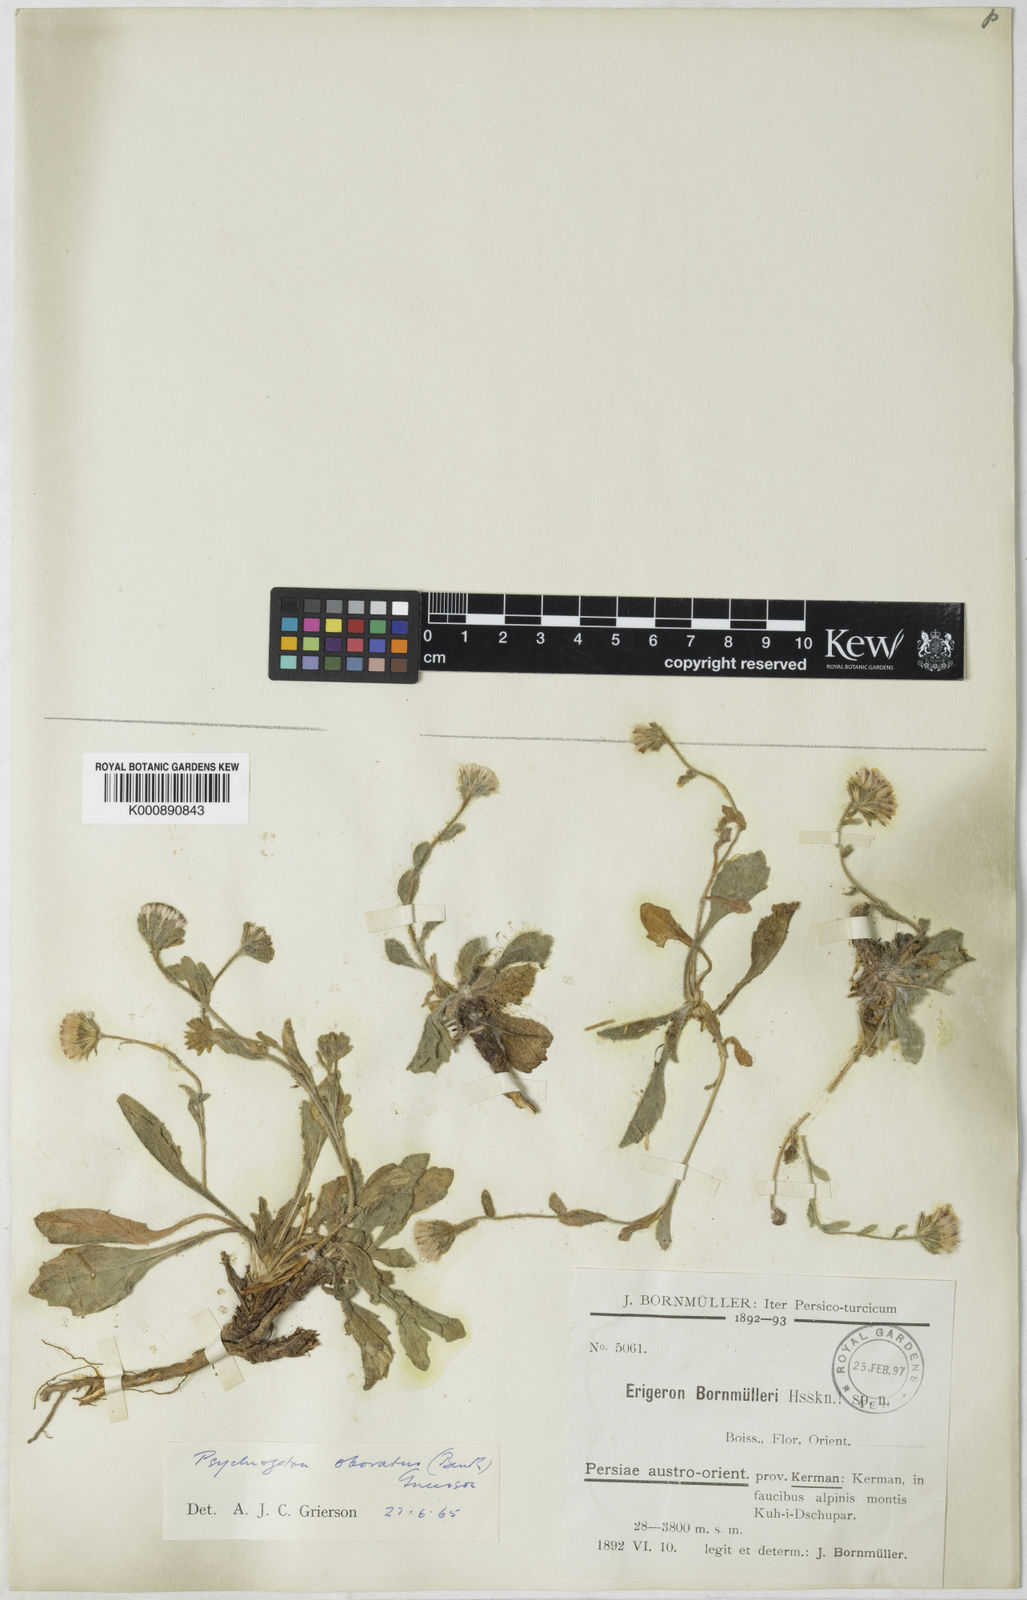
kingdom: Plantae
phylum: Tracheophyta
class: Magnoliopsida
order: Asterales
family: Asteraceae
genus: Neobrachyactis
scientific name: Neobrachyactis obovata
